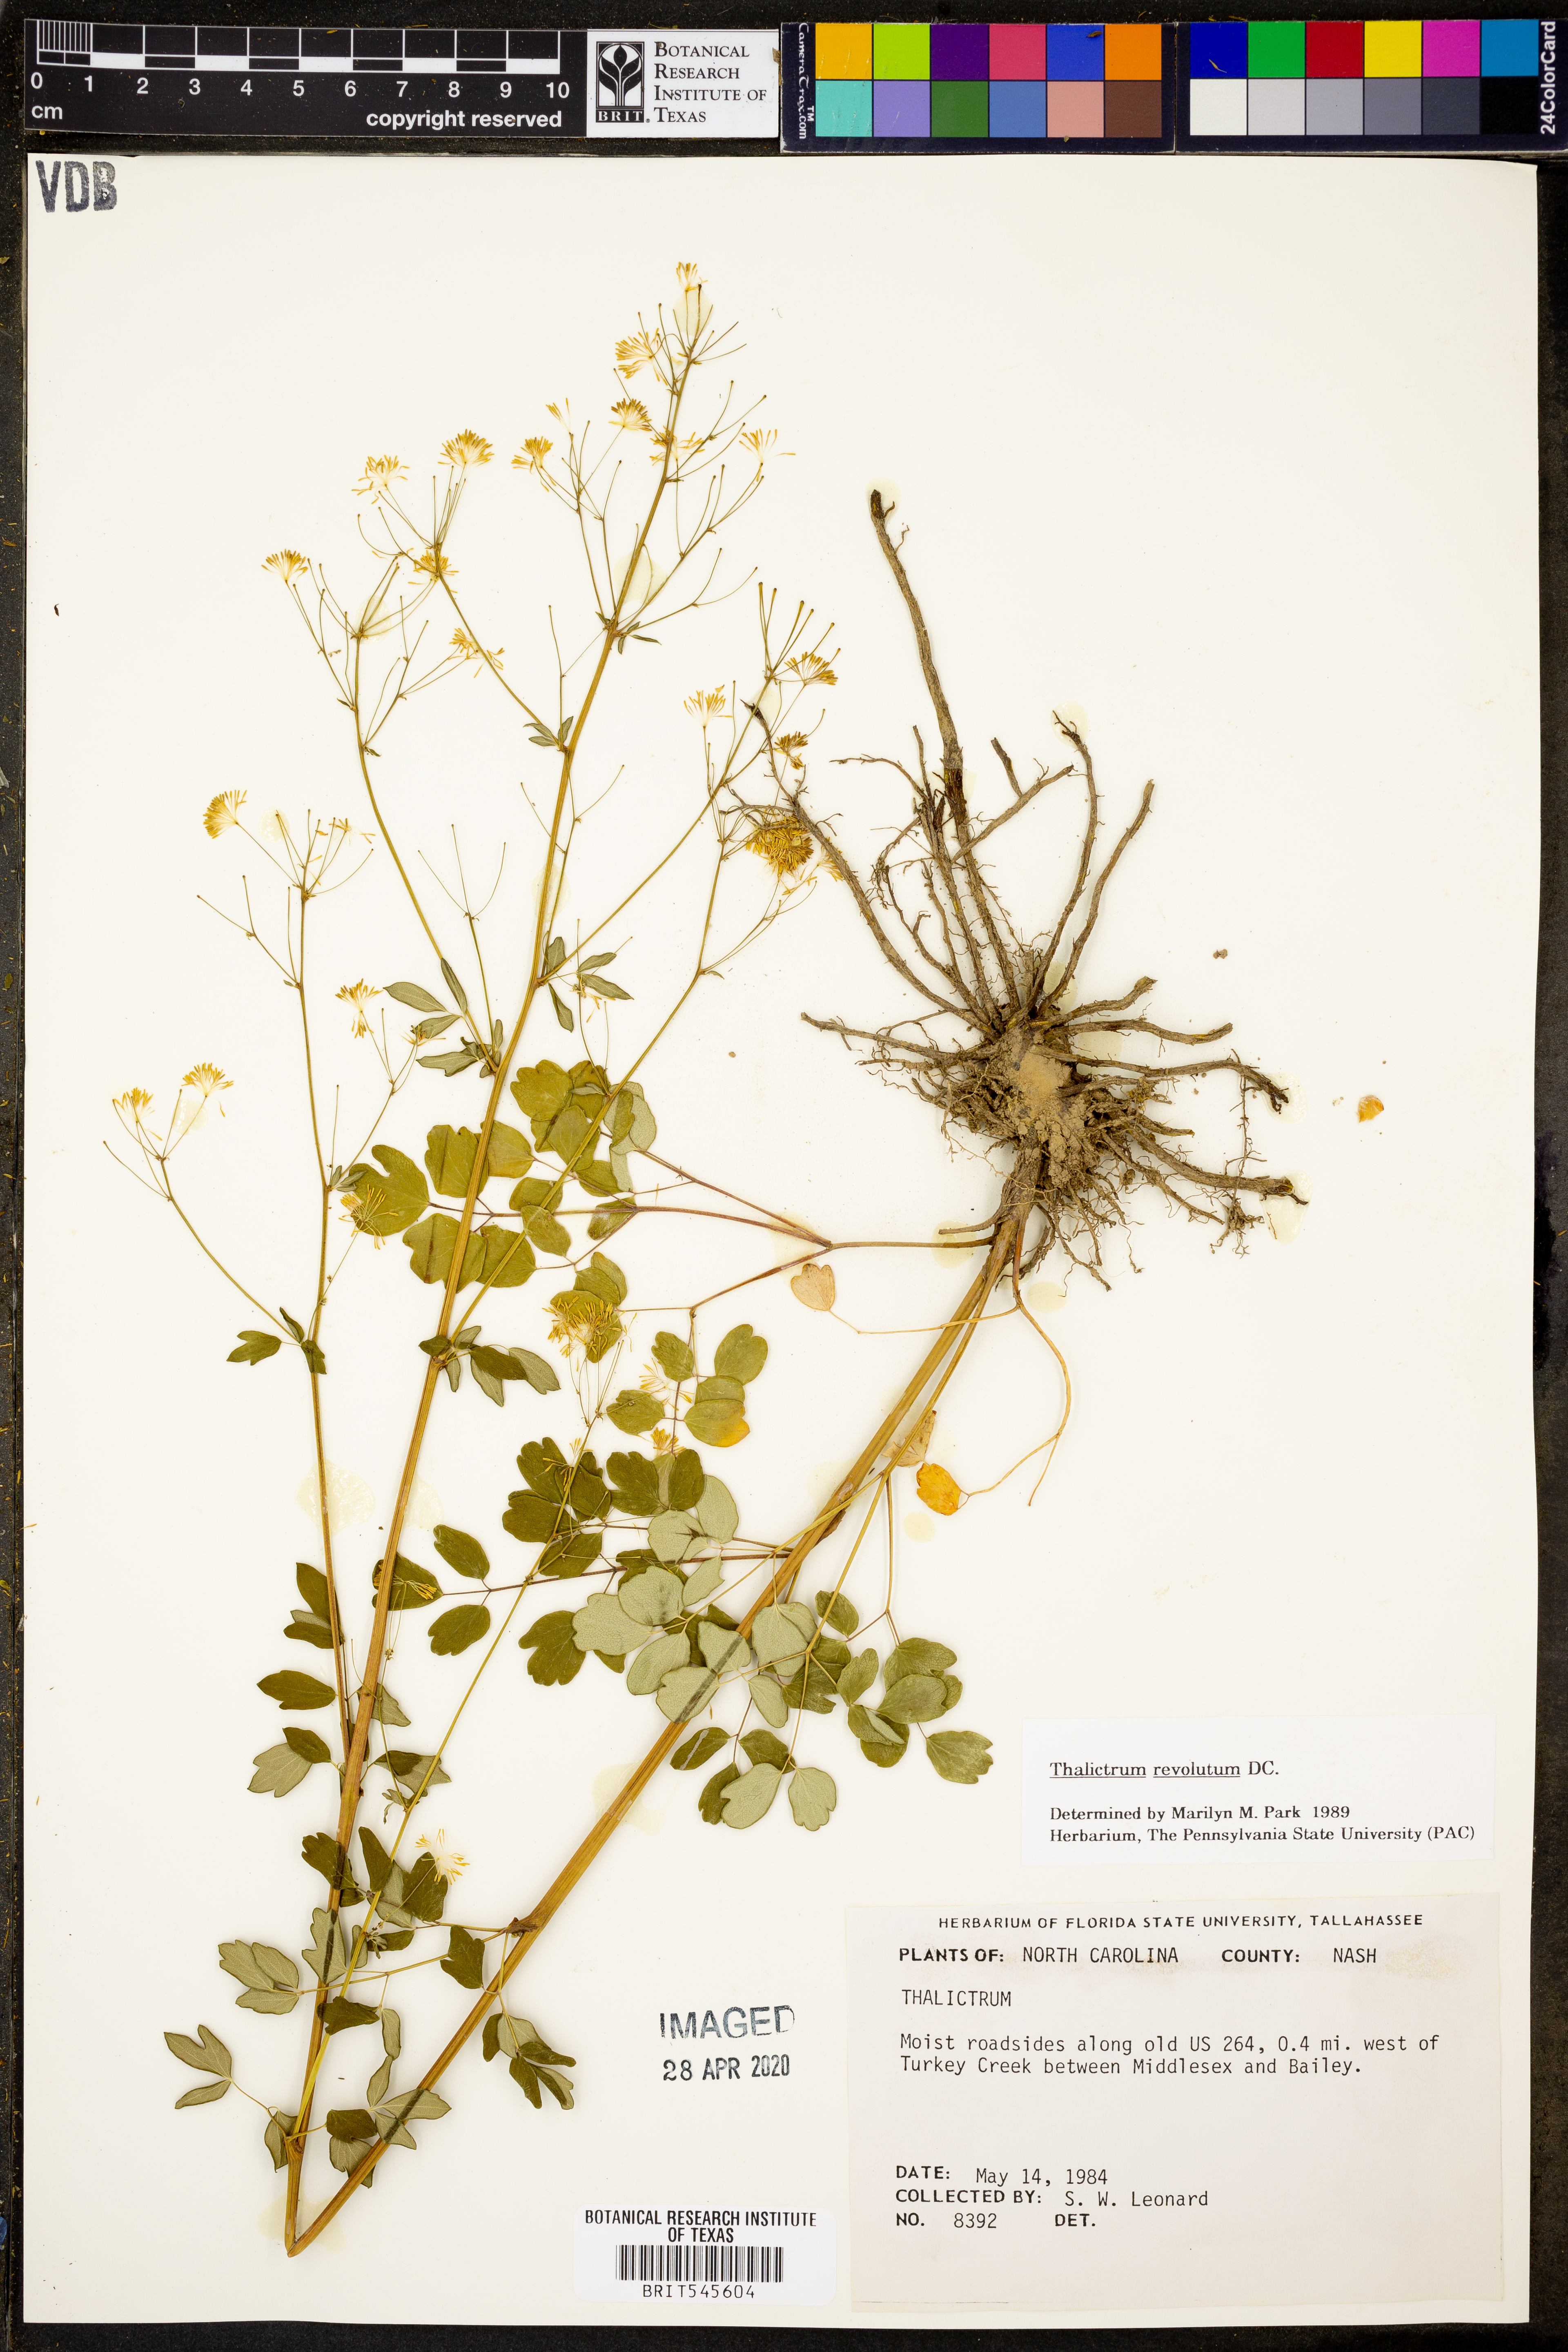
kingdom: Plantae
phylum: Tracheophyta
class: Magnoliopsida
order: Ranunculales
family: Ranunculaceae
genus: Thalictrum
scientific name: Thalictrum revolutum
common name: Waxy meadow-rue
